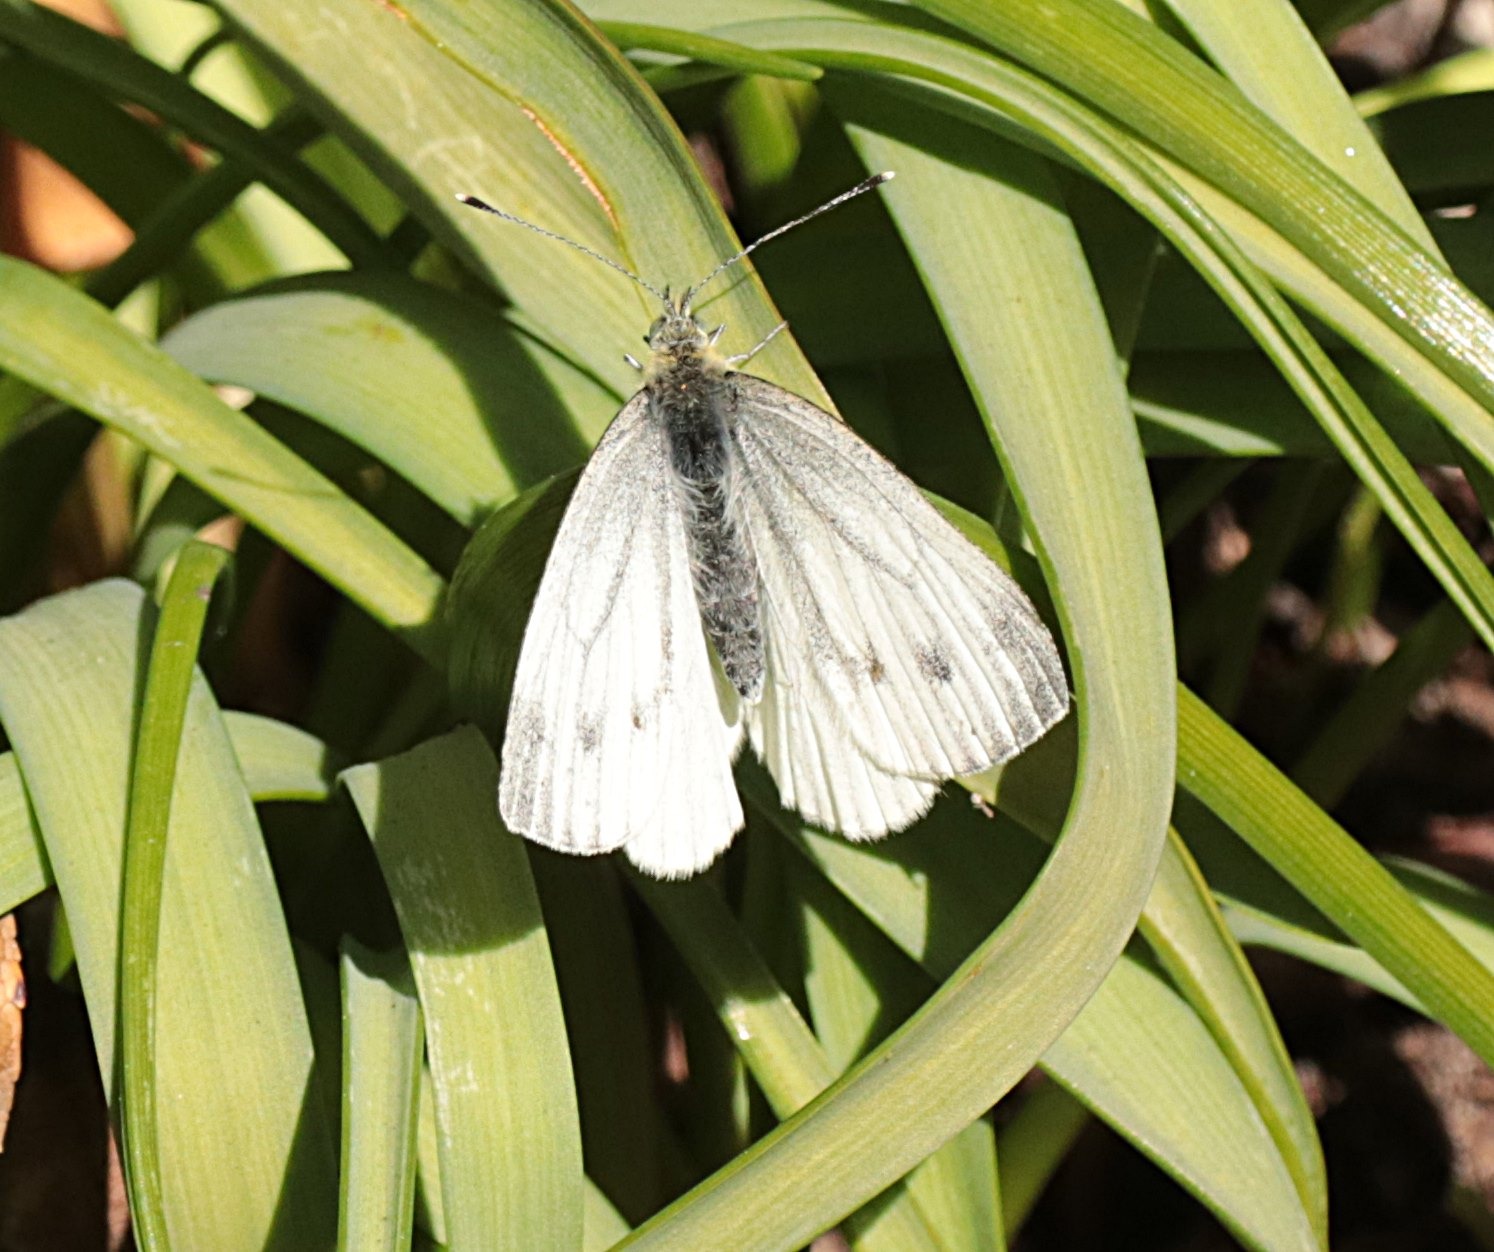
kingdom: Animalia
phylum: Arthropoda
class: Insecta
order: Lepidoptera
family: Pieridae
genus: Pieris
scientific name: Pieris napi
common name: Grønåret kålsommerfugl
